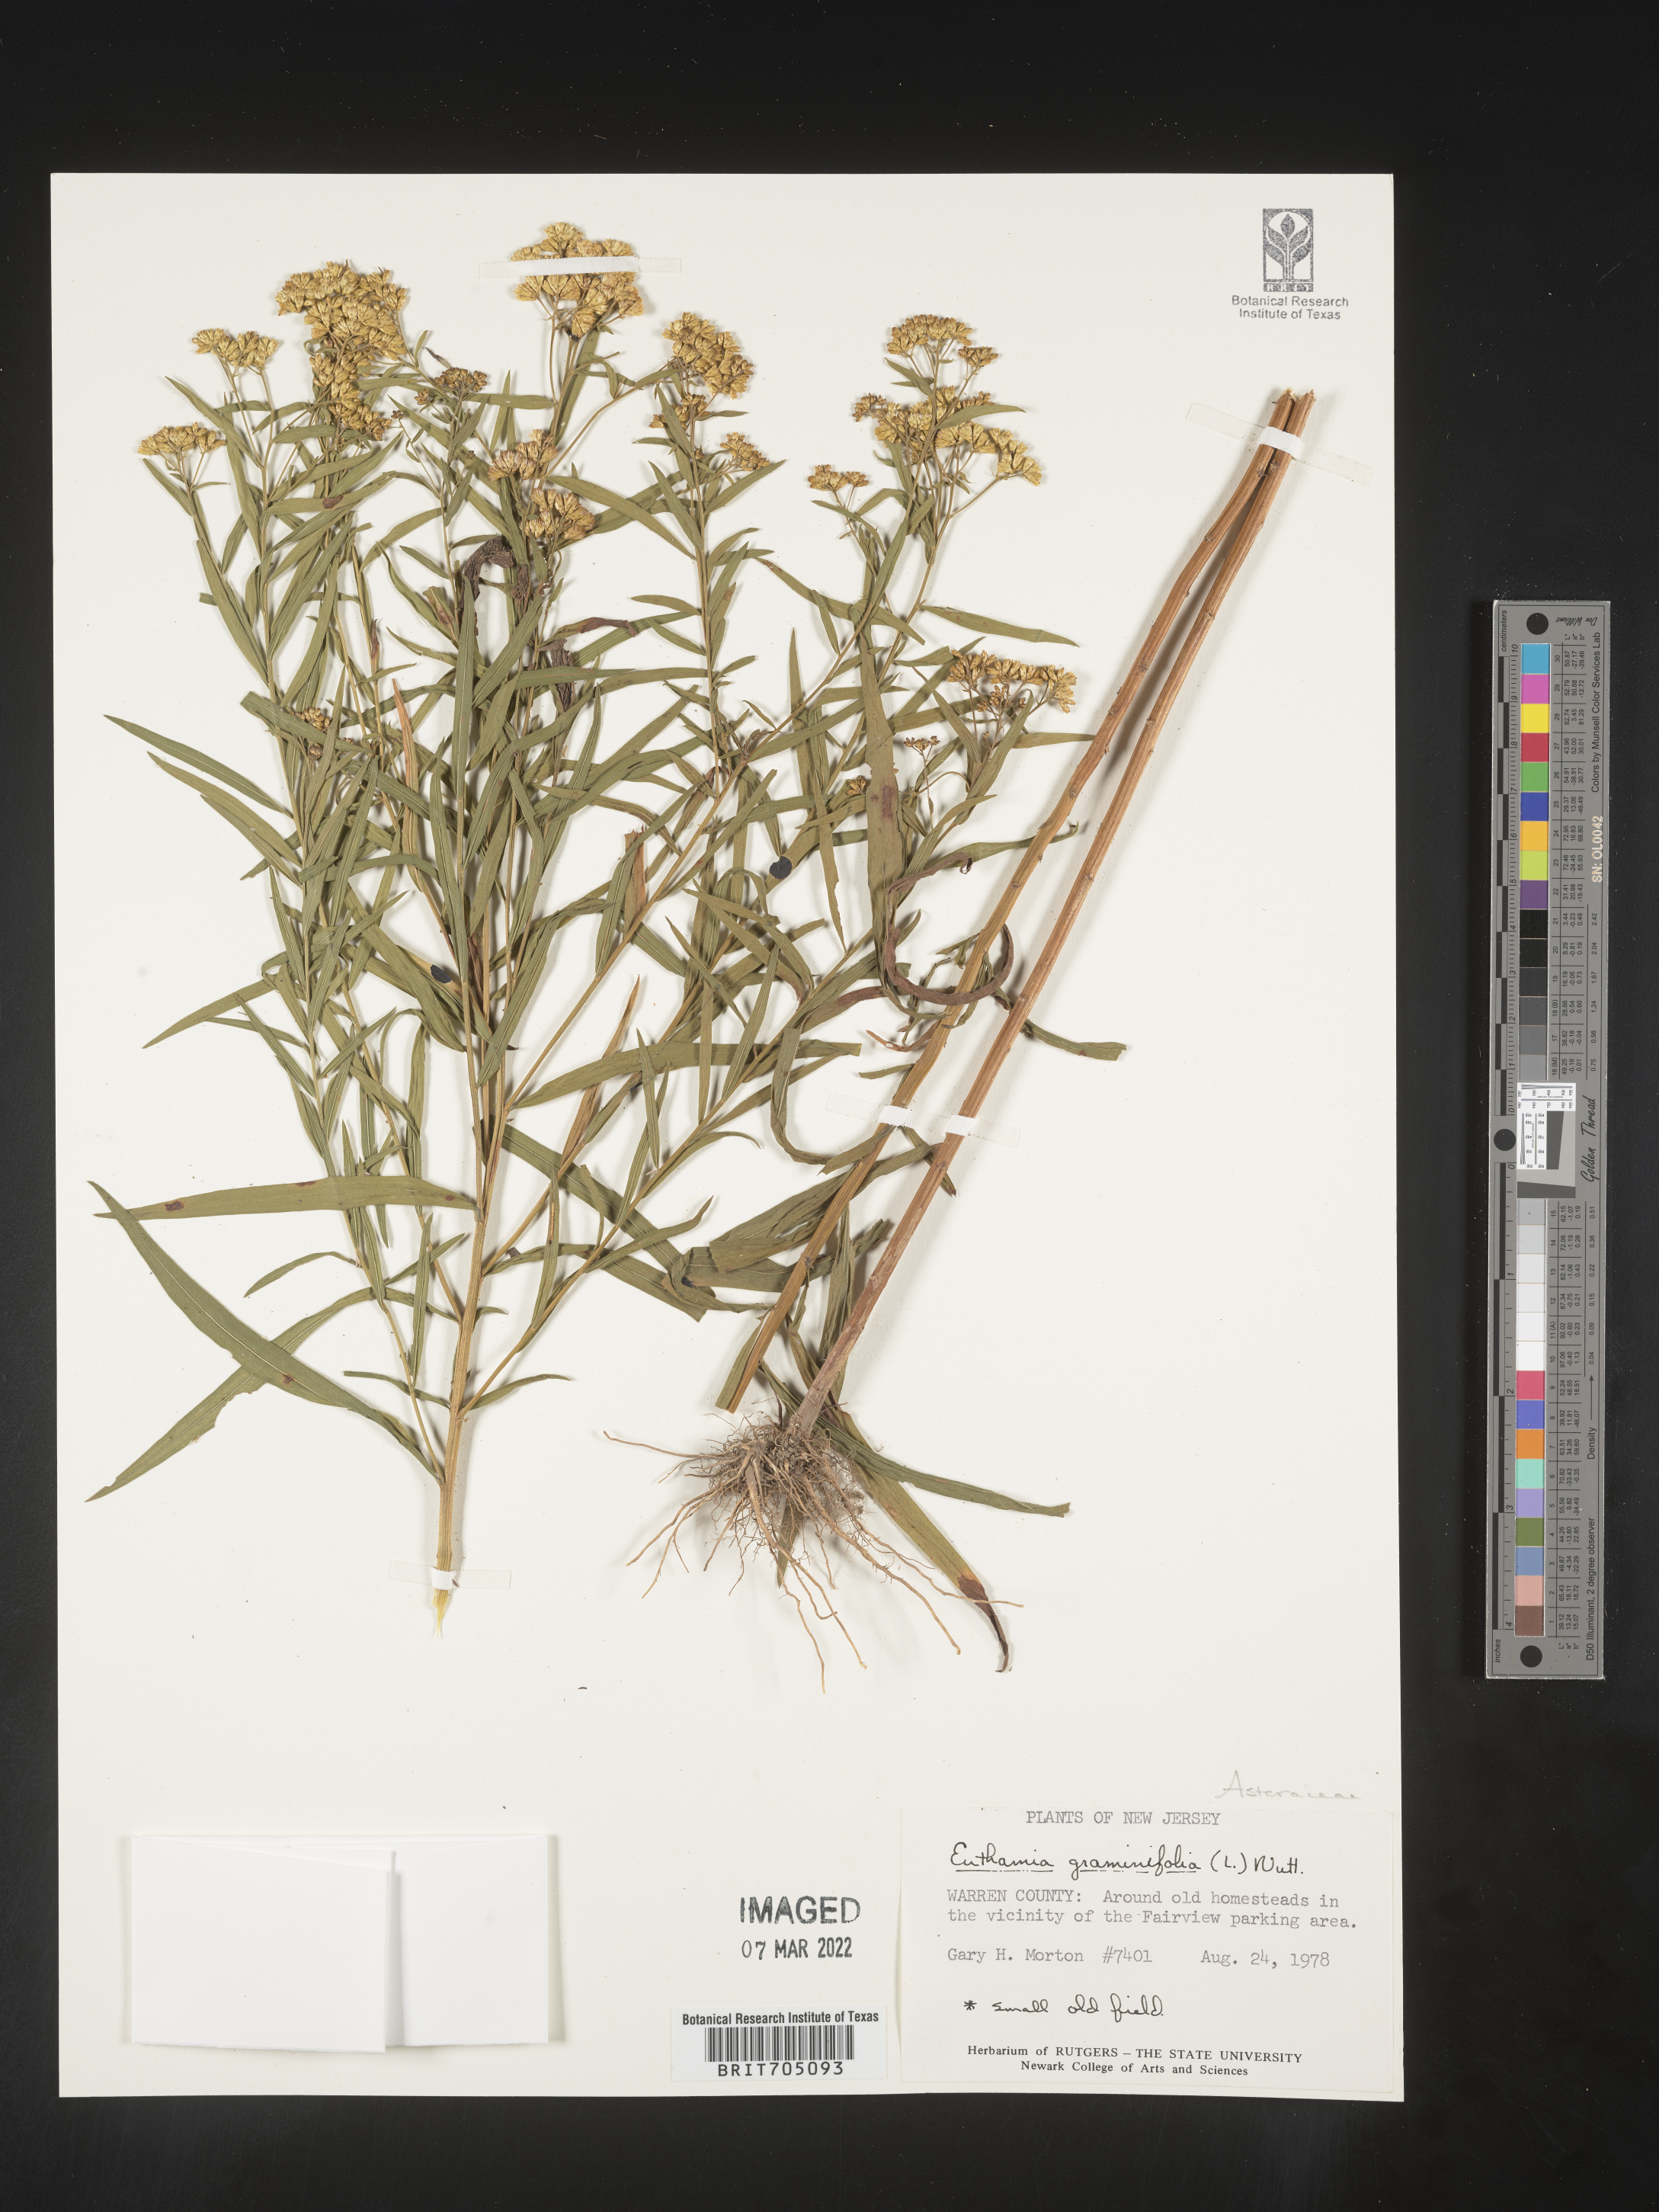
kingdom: Plantae
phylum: Tracheophyta
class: Magnoliopsida
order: Asterales
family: Asteraceae
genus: Euthamia
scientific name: Euthamia graminifolia
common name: Common goldentop
